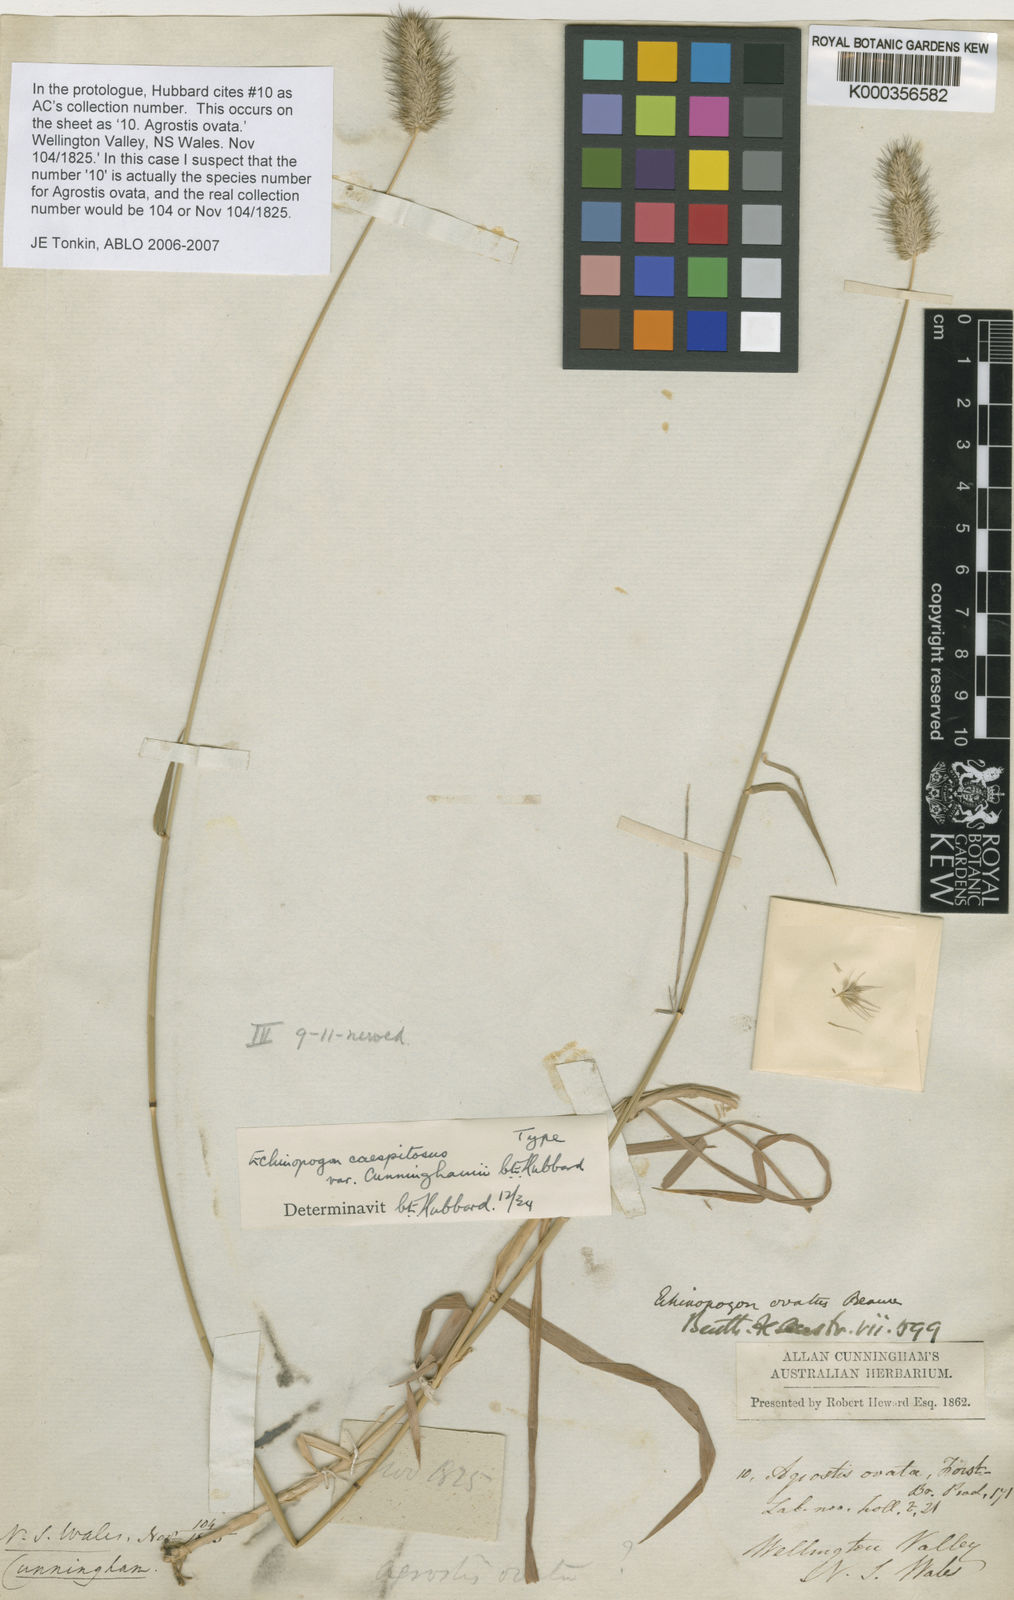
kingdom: Plantae
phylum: Tracheophyta
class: Liliopsida
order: Poales
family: Poaceae
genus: Echinopogon
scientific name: Echinopogon caespitosus
